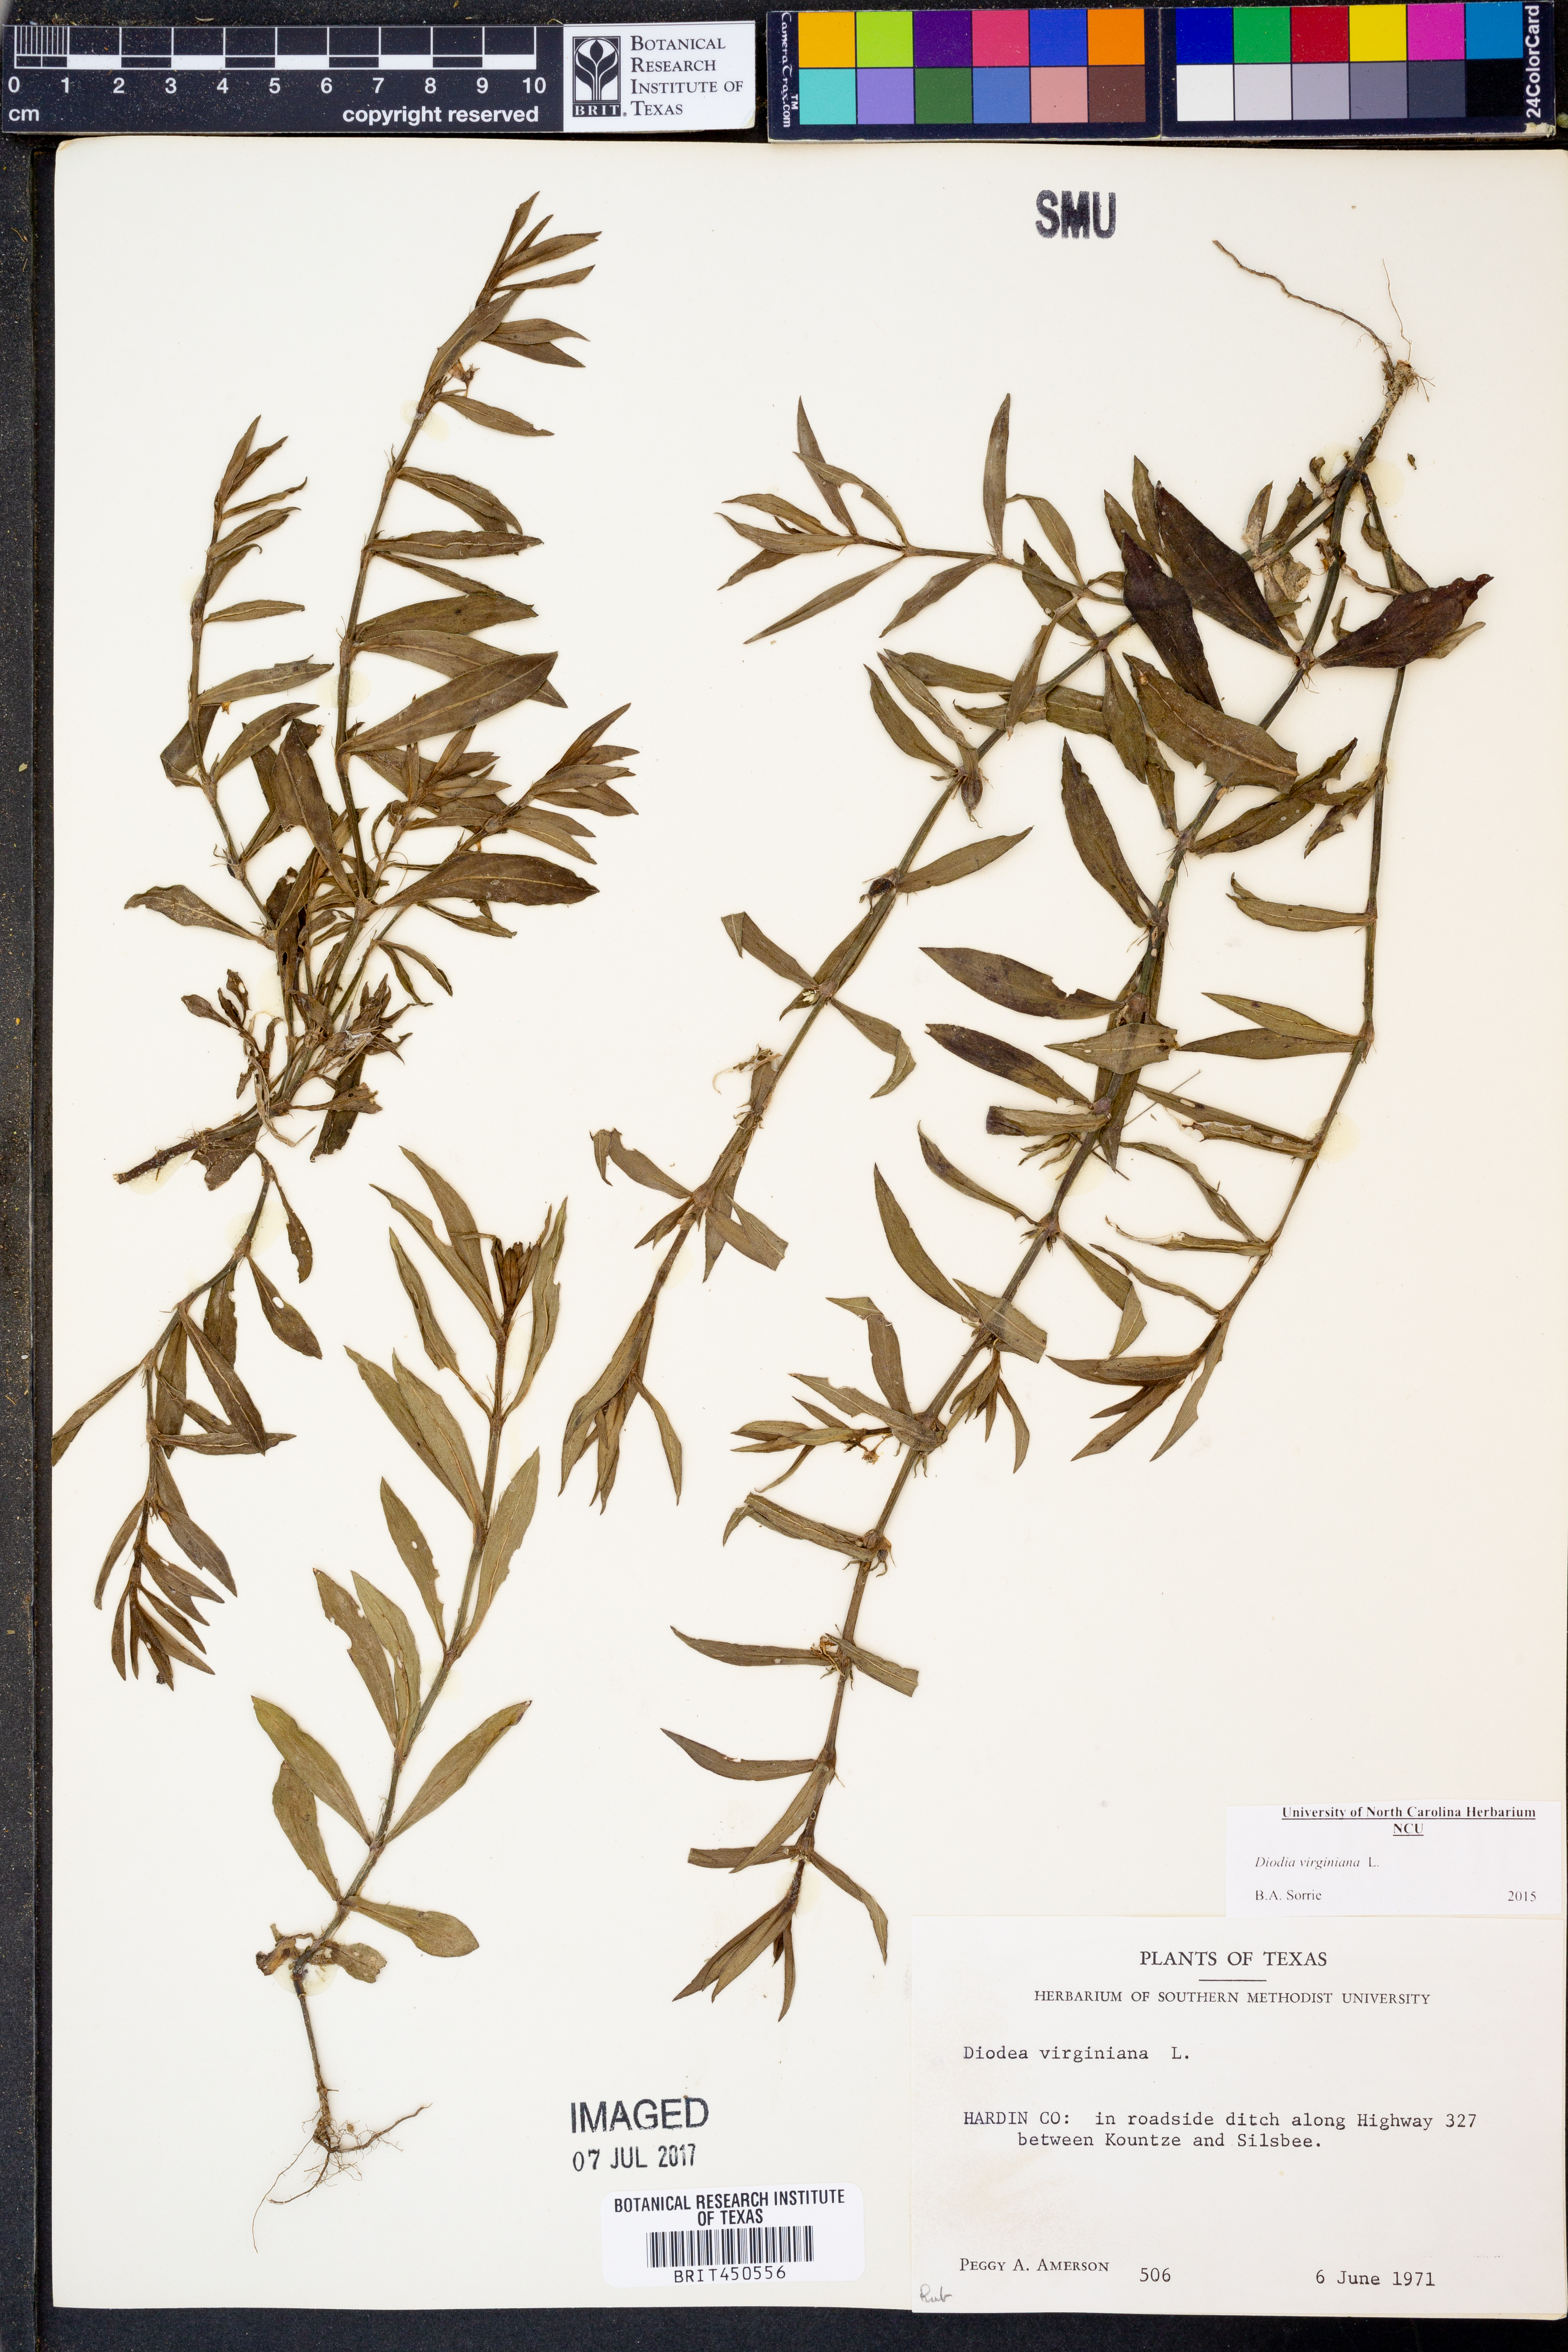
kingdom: Plantae
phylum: Tracheophyta
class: Magnoliopsida
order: Gentianales
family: Rubiaceae
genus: Diodia
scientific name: Diodia virginiana
